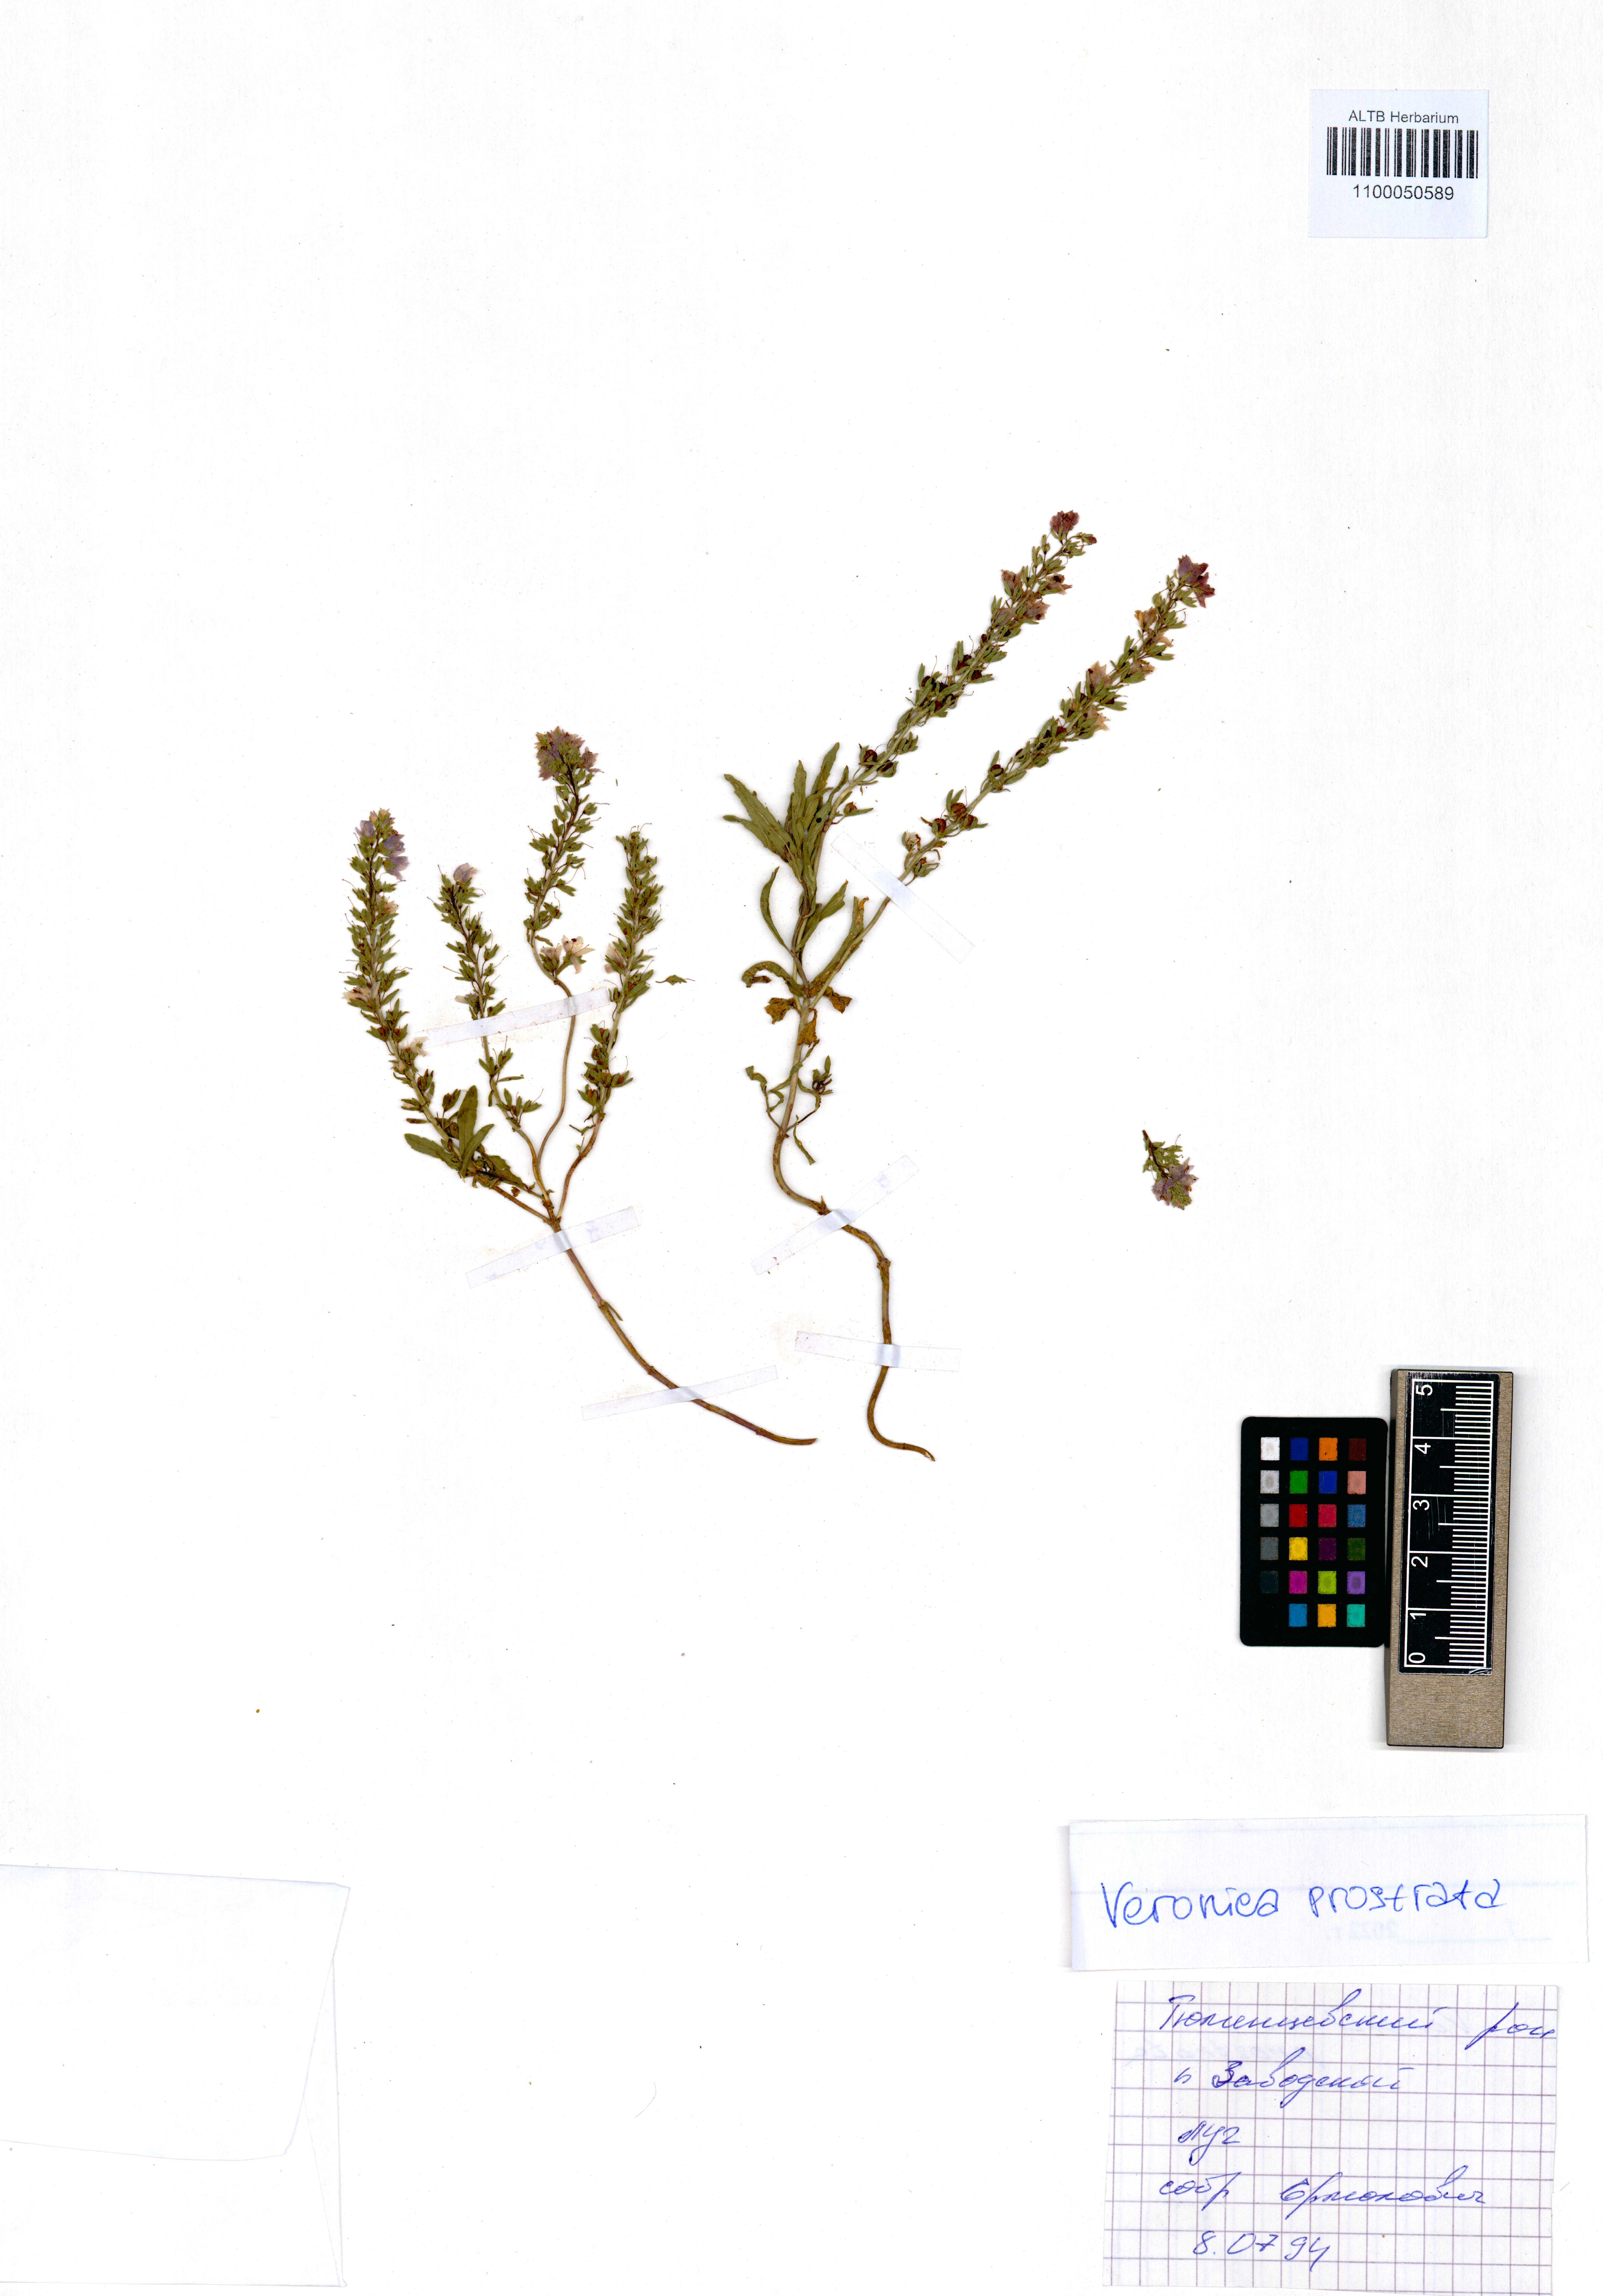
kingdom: Plantae
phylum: Tracheophyta
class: Magnoliopsida
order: Lamiales
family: Plantaginaceae
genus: Veronica
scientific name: Veronica prostrata
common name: Prostrate speedwell
